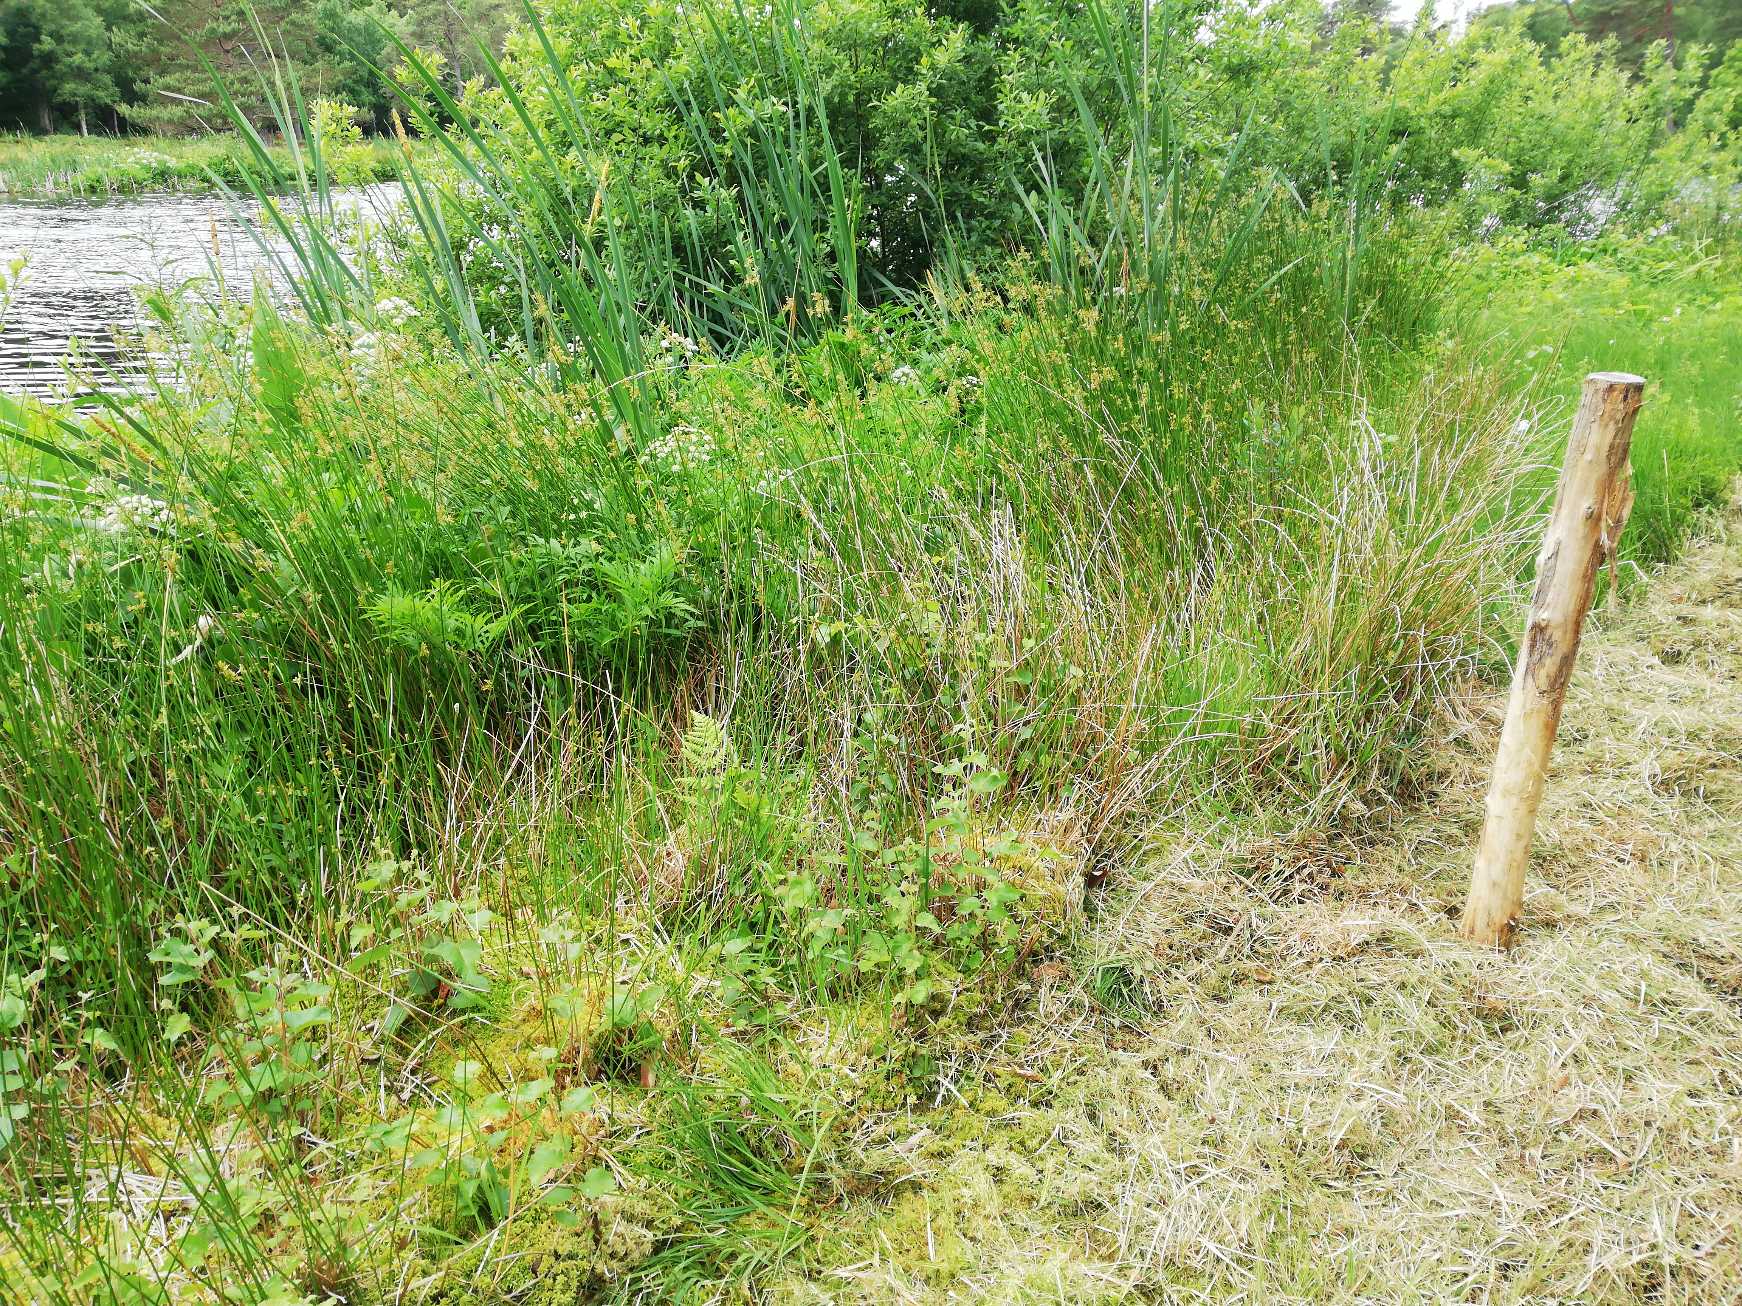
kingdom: Plantae
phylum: Tracheophyta
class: Magnoliopsida
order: Apiales
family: Apiaceae
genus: Cicuta
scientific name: Cicuta virosa
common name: Gifttyde
